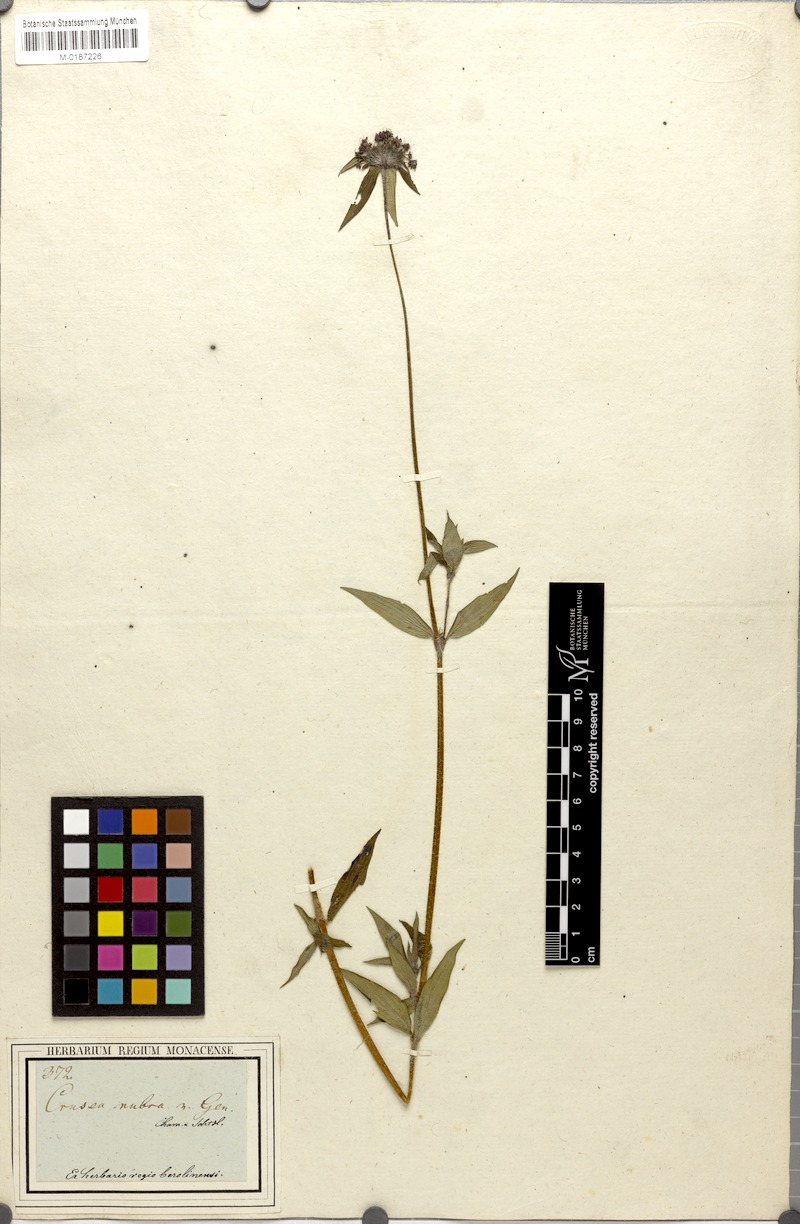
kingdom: Plantae
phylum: Tracheophyta
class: Magnoliopsida
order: Gentianales
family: Rubiaceae
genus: Crusea
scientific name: Crusea hispida
